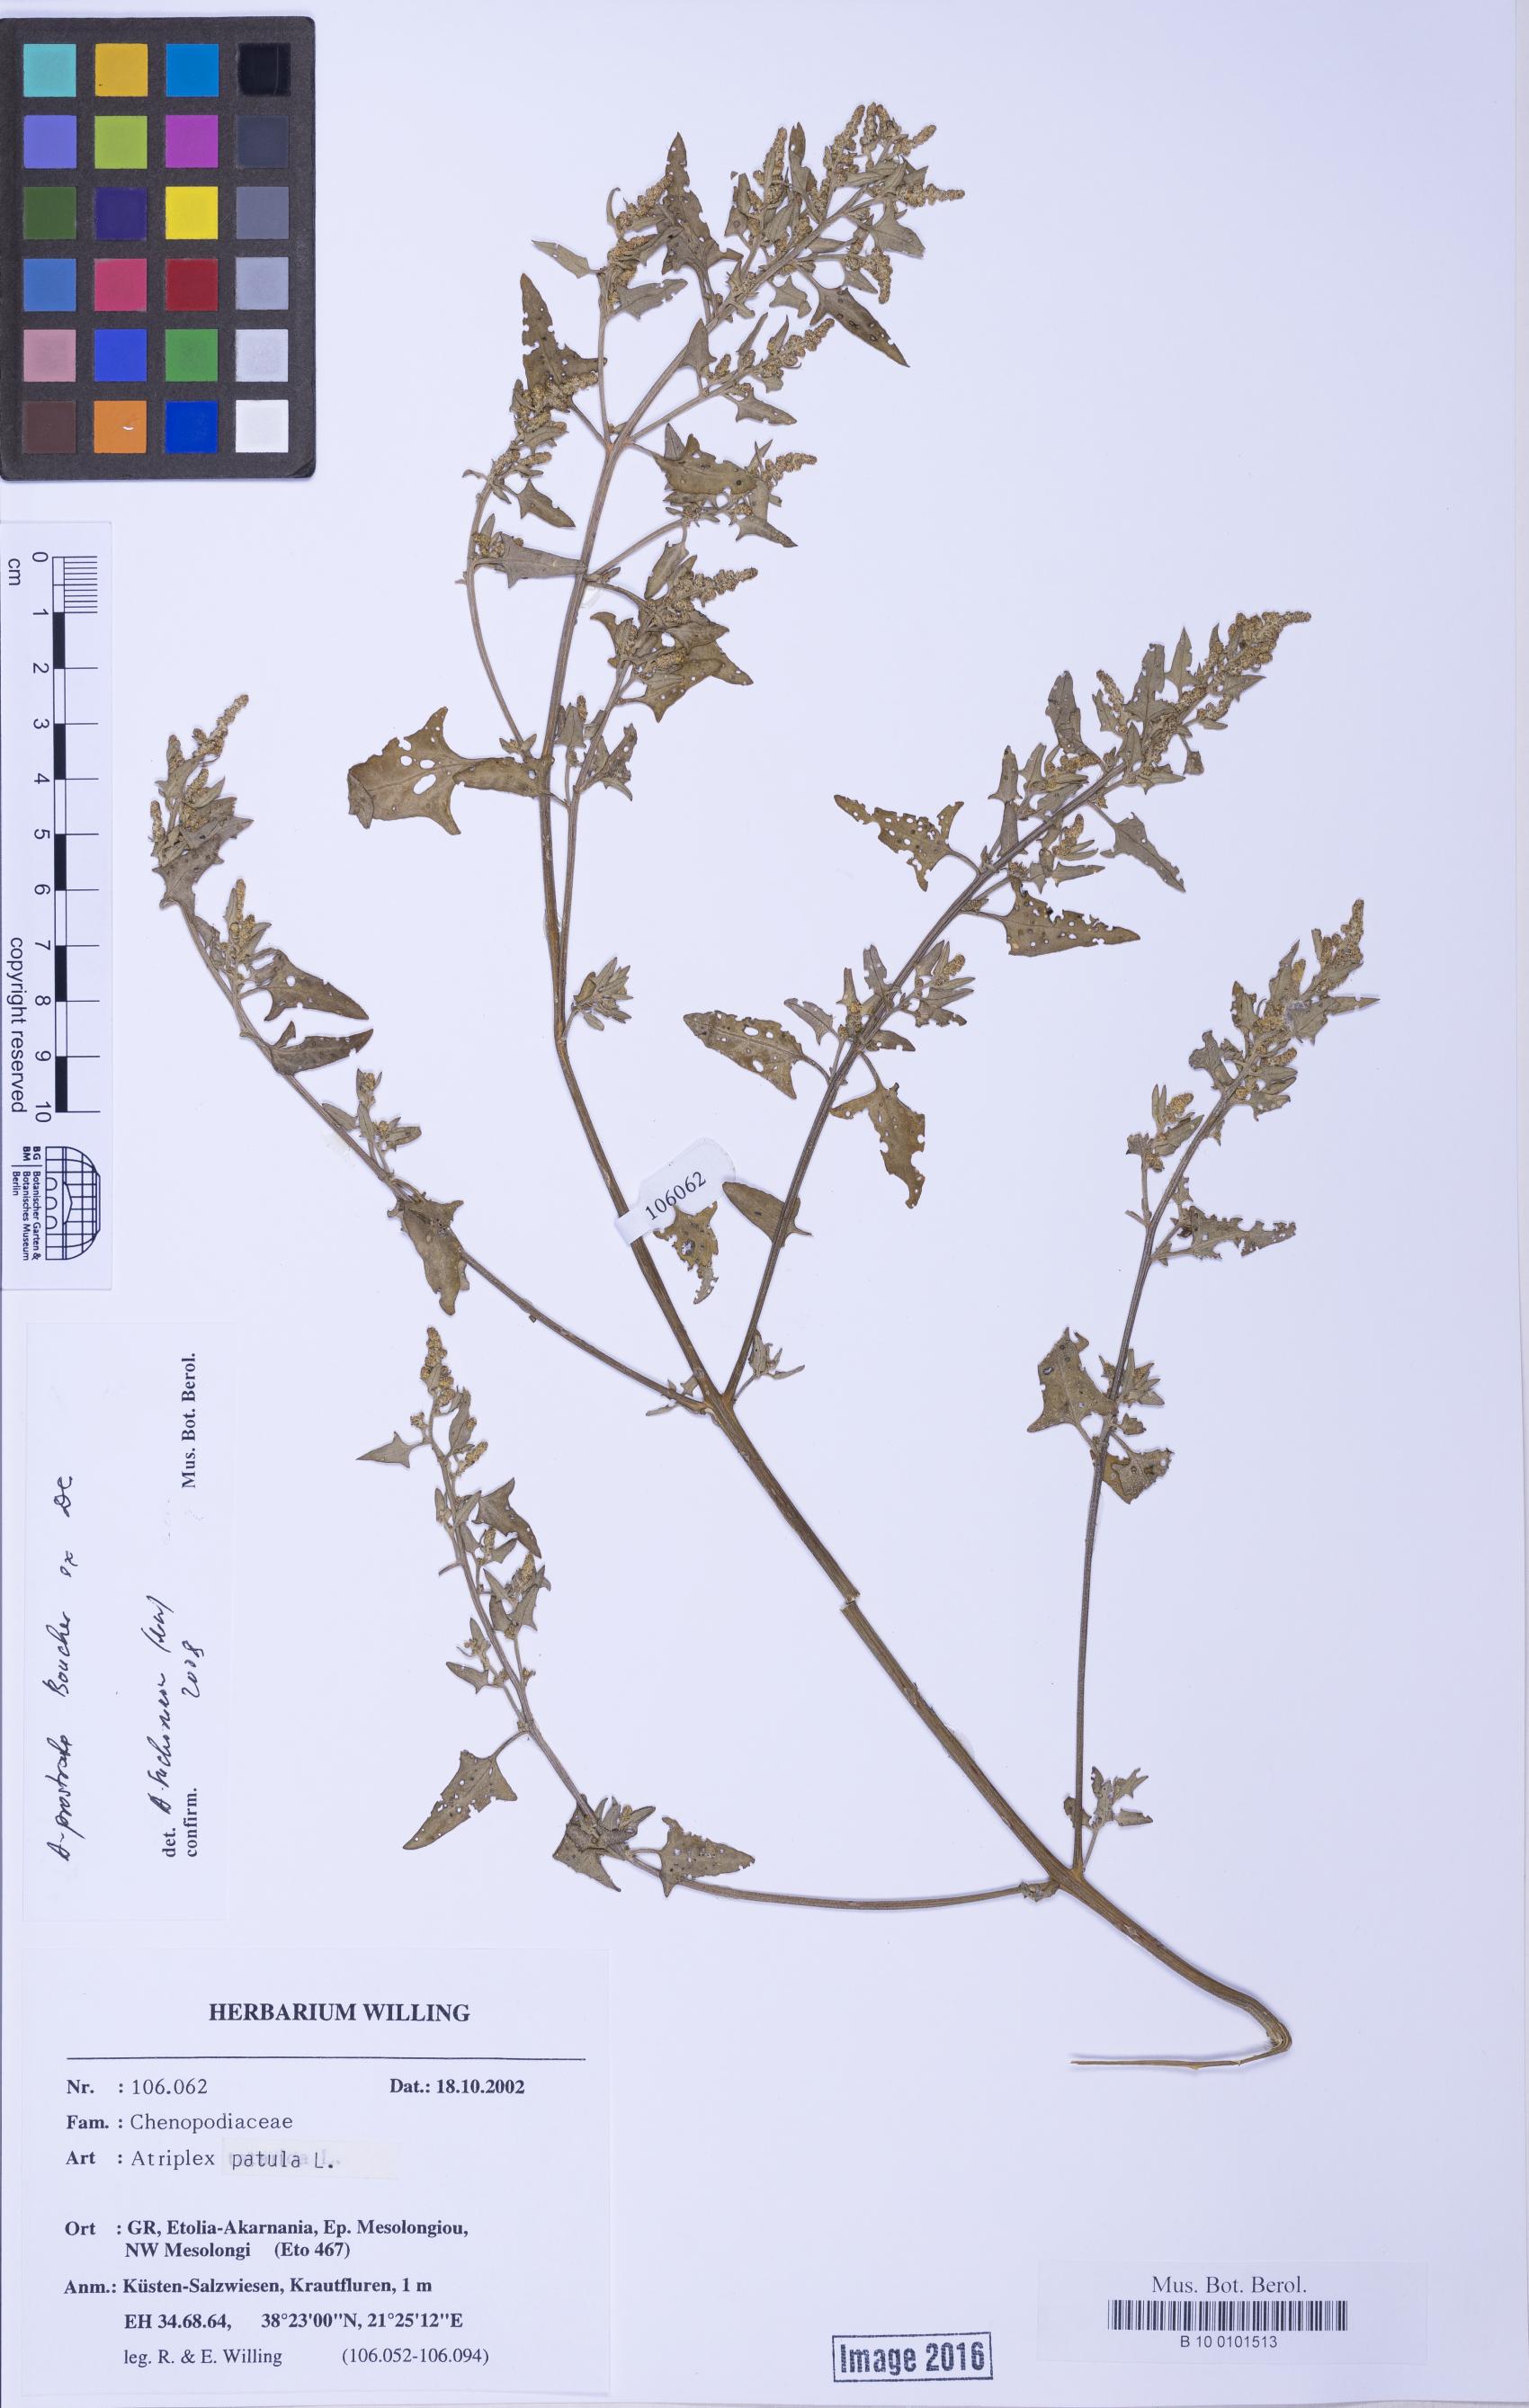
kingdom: Plantae
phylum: Tracheophyta
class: Magnoliopsida
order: Caryophyllales
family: Amaranthaceae
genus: Atriplex
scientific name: Atriplex prostrata
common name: Spear-leaved orache
